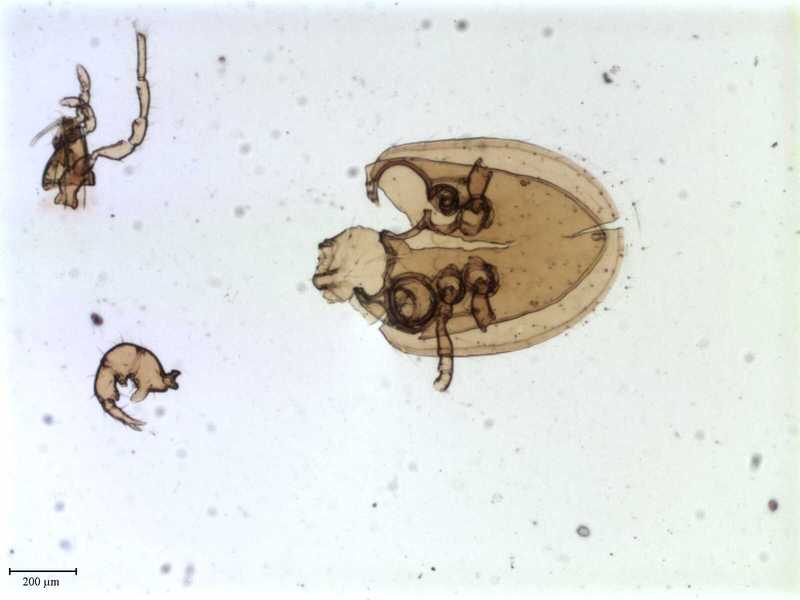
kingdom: Animalia
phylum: Arthropoda
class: Arachnida
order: Mesostigmata
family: Pachylaelapidae
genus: Pachylaelaps
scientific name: Pachylaelaps turgidus
